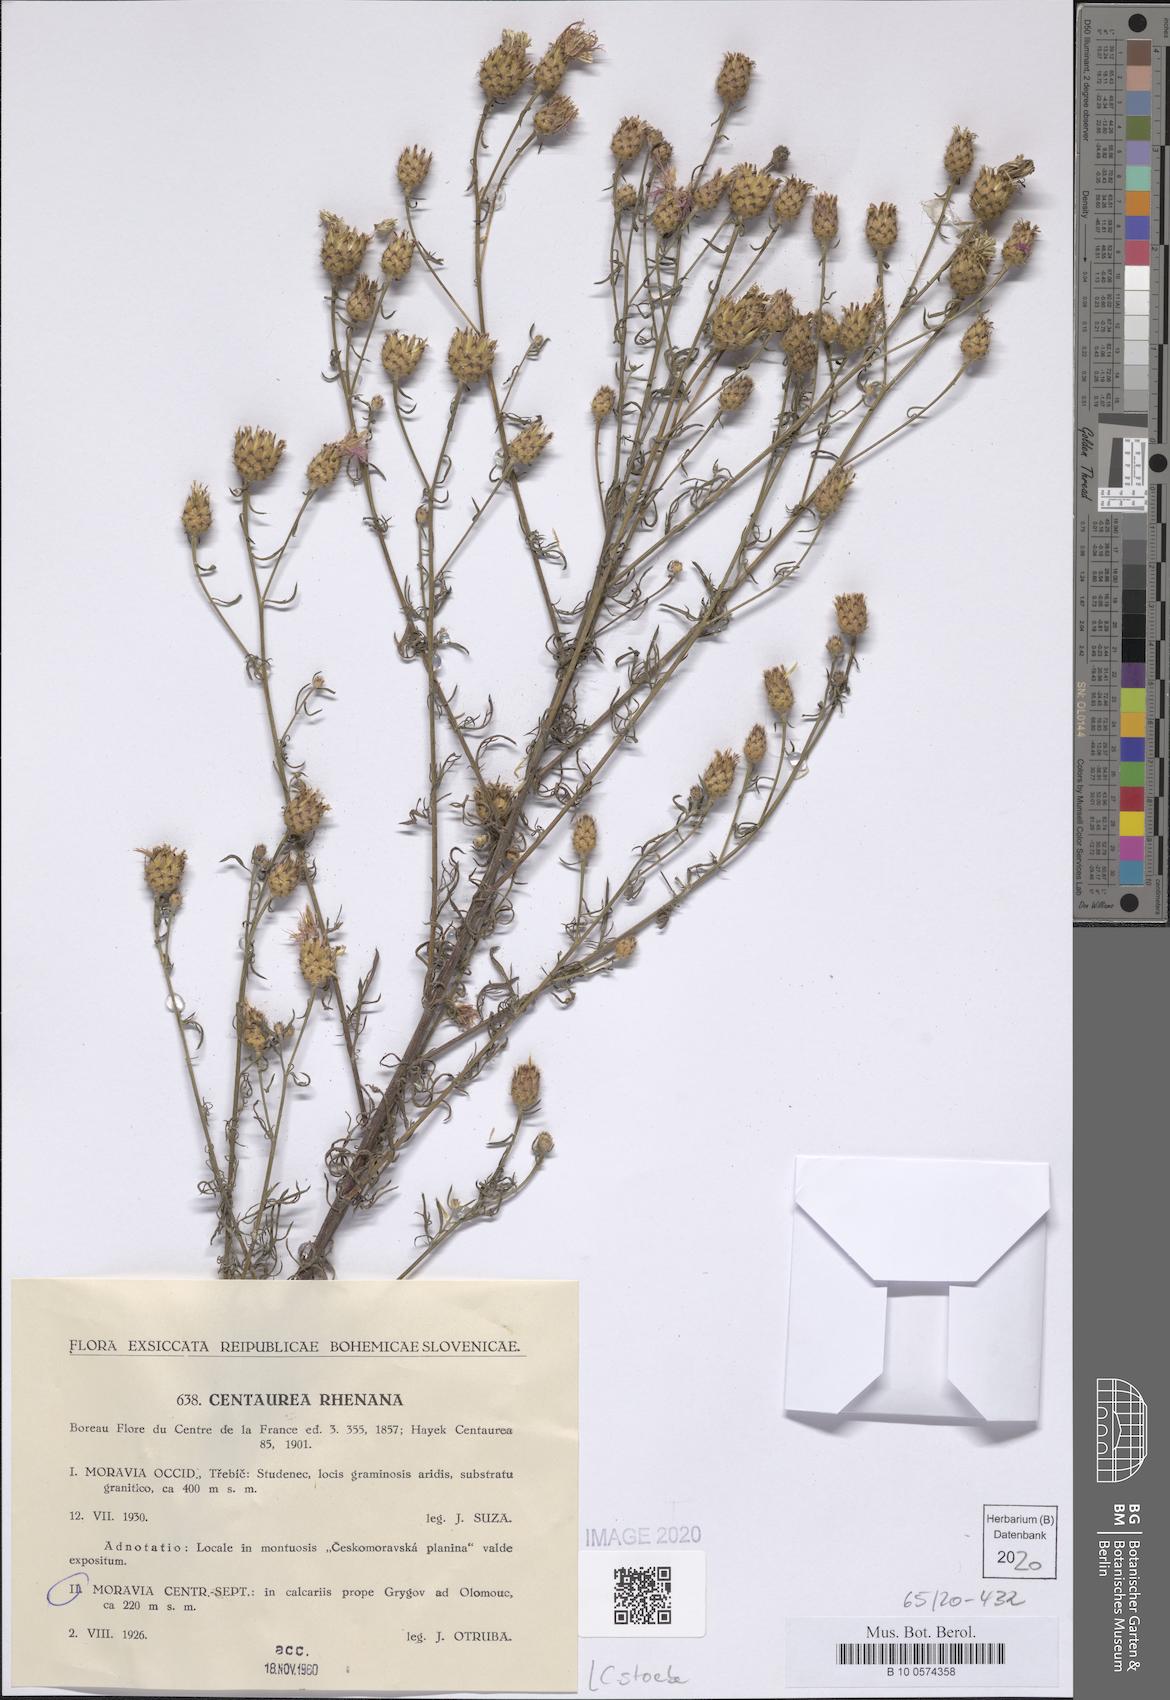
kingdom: Plantae
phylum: Tracheophyta
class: Magnoliopsida
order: Asterales
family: Asteraceae
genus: Centaurea
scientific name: Centaurea stoebe
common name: Spotted knapweed
